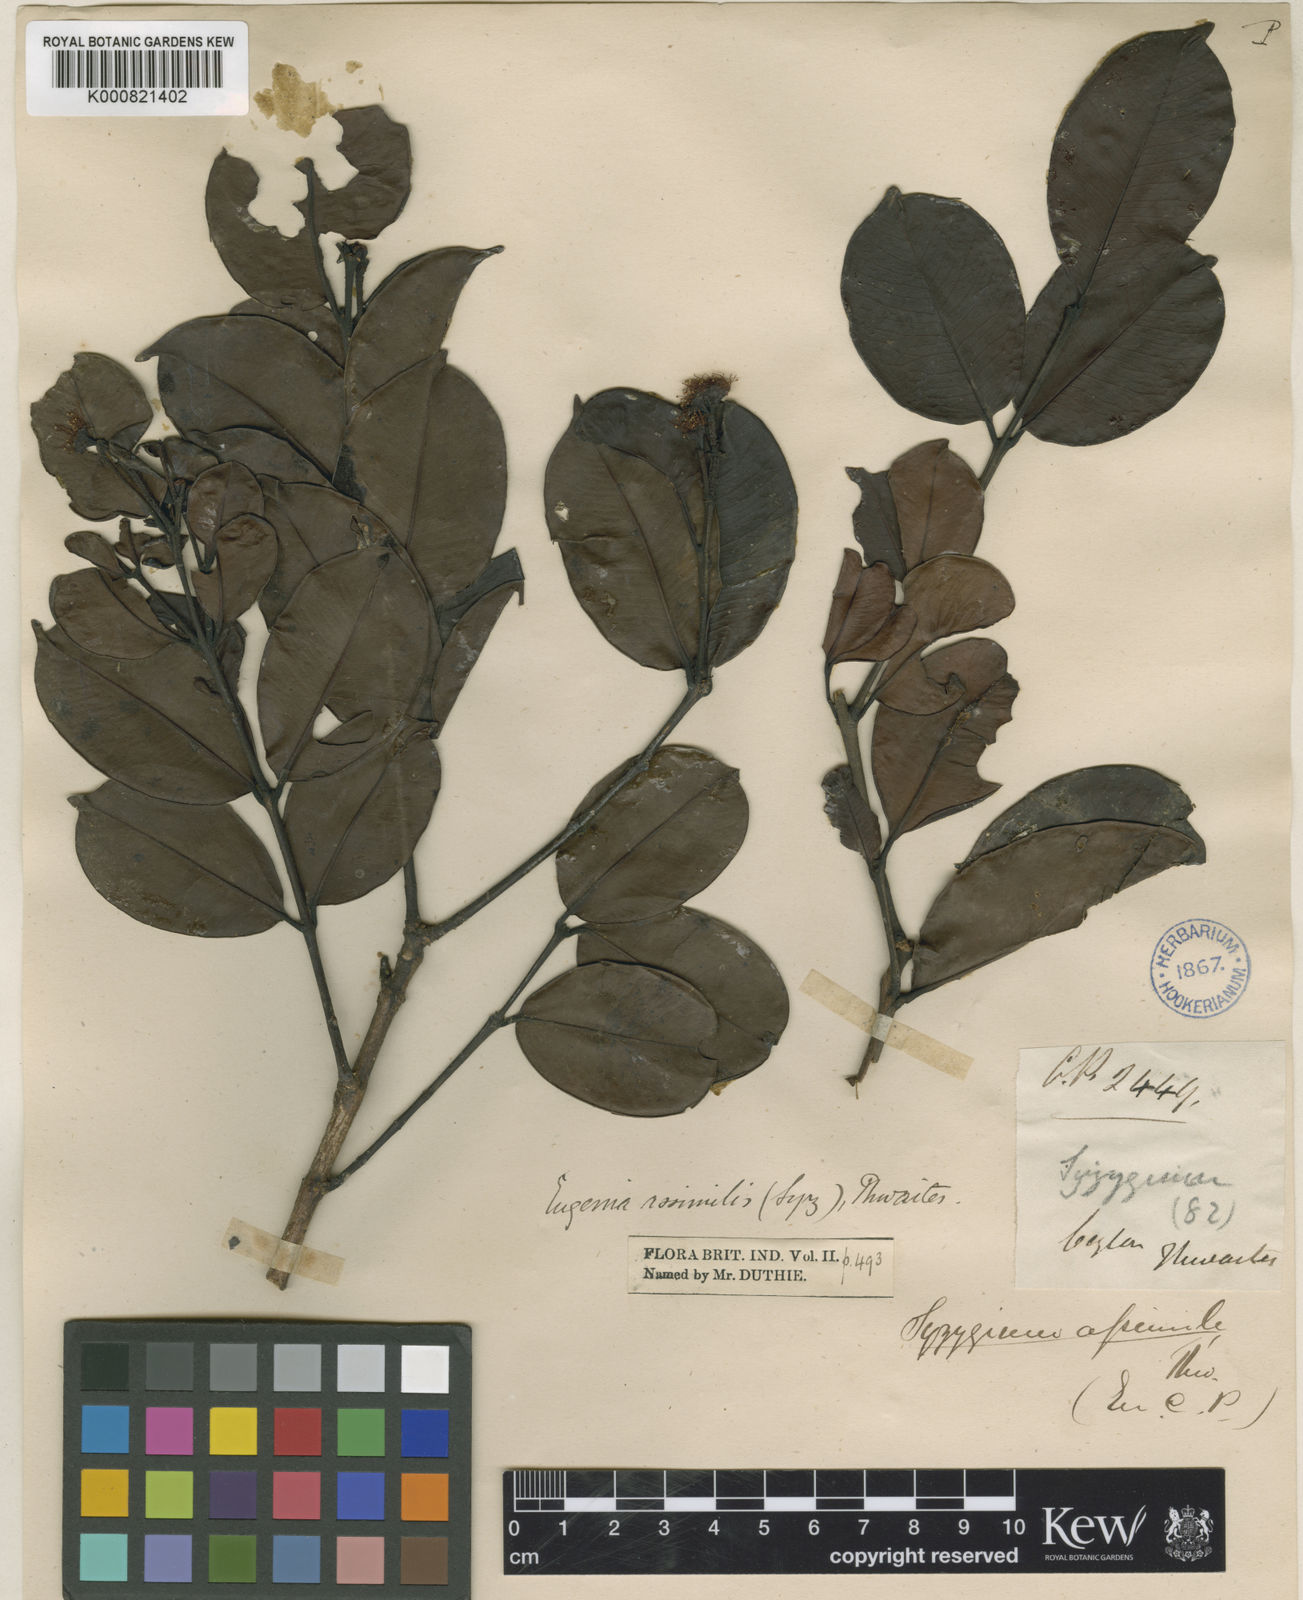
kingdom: Plantae
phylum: Tracheophyta
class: Magnoliopsida
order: Myrtales
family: Myrtaceae
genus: Syzygium
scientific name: Syzygium assimile
